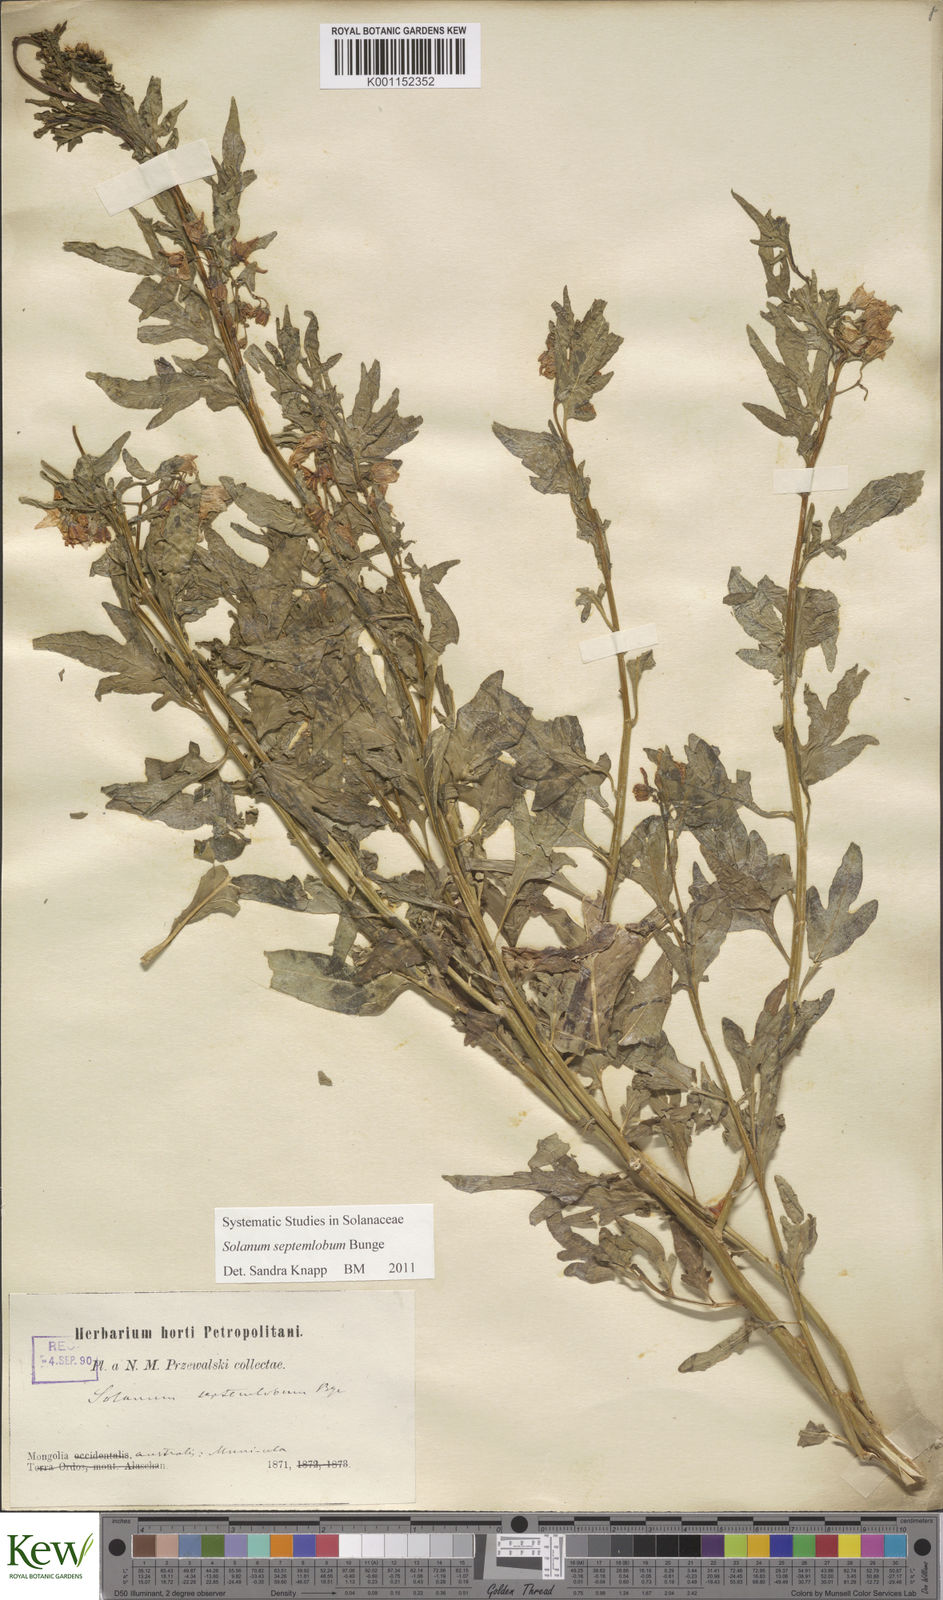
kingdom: Plantae
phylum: Tracheophyta
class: Magnoliopsida
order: Solanales
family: Solanaceae
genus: Solanum
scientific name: Solanum septemlobum
